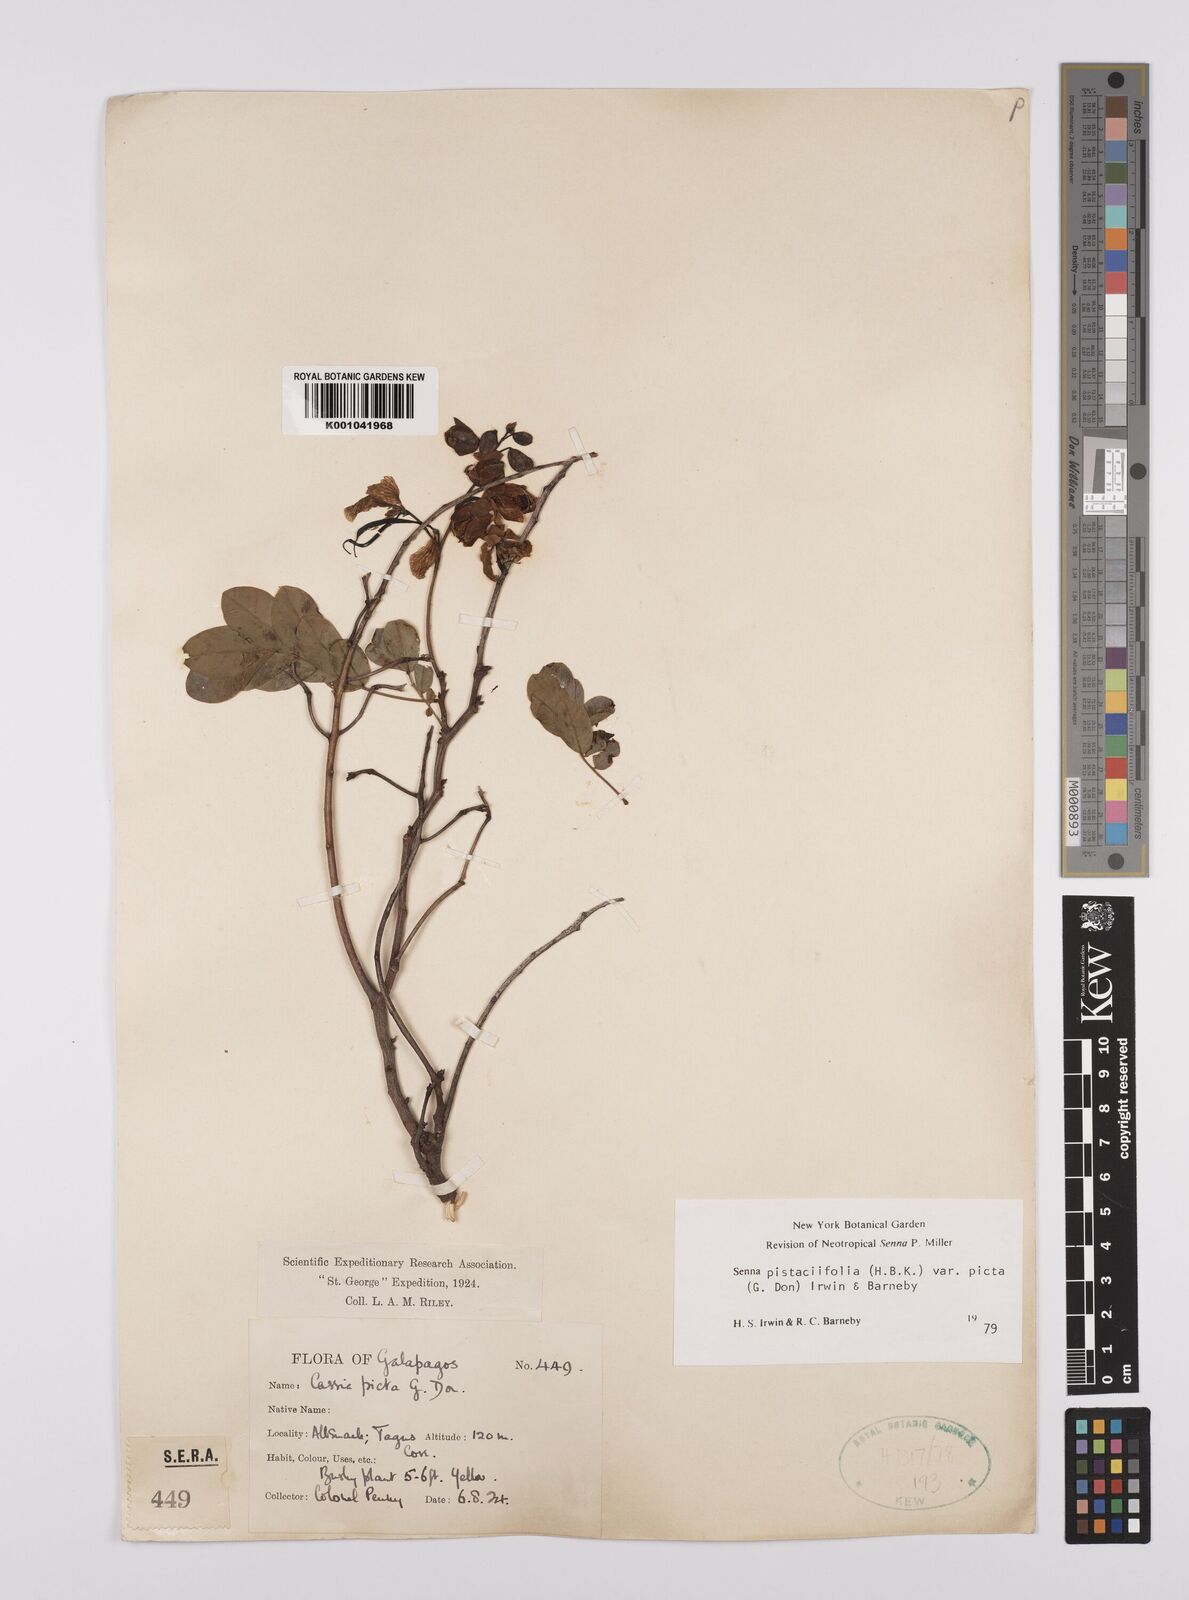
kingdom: Plantae
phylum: Tracheophyta
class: Magnoliopsida
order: Fabales
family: Fabaceae
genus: Senna
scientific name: Senna pistaciifolia
